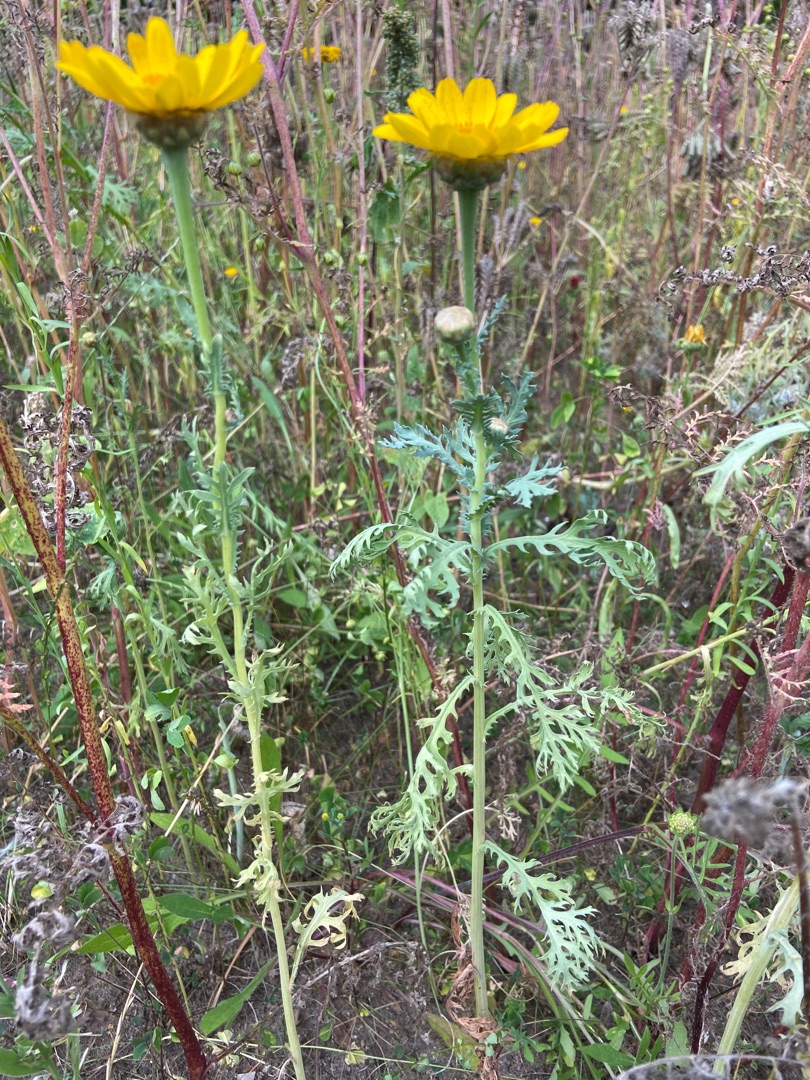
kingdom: Plantae
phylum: Tracheophyta
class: Magnoliopsida
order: Asterales
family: Asteraceae
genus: Glebionis
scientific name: Glebionis carinata
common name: Flerfarvet okseøje
